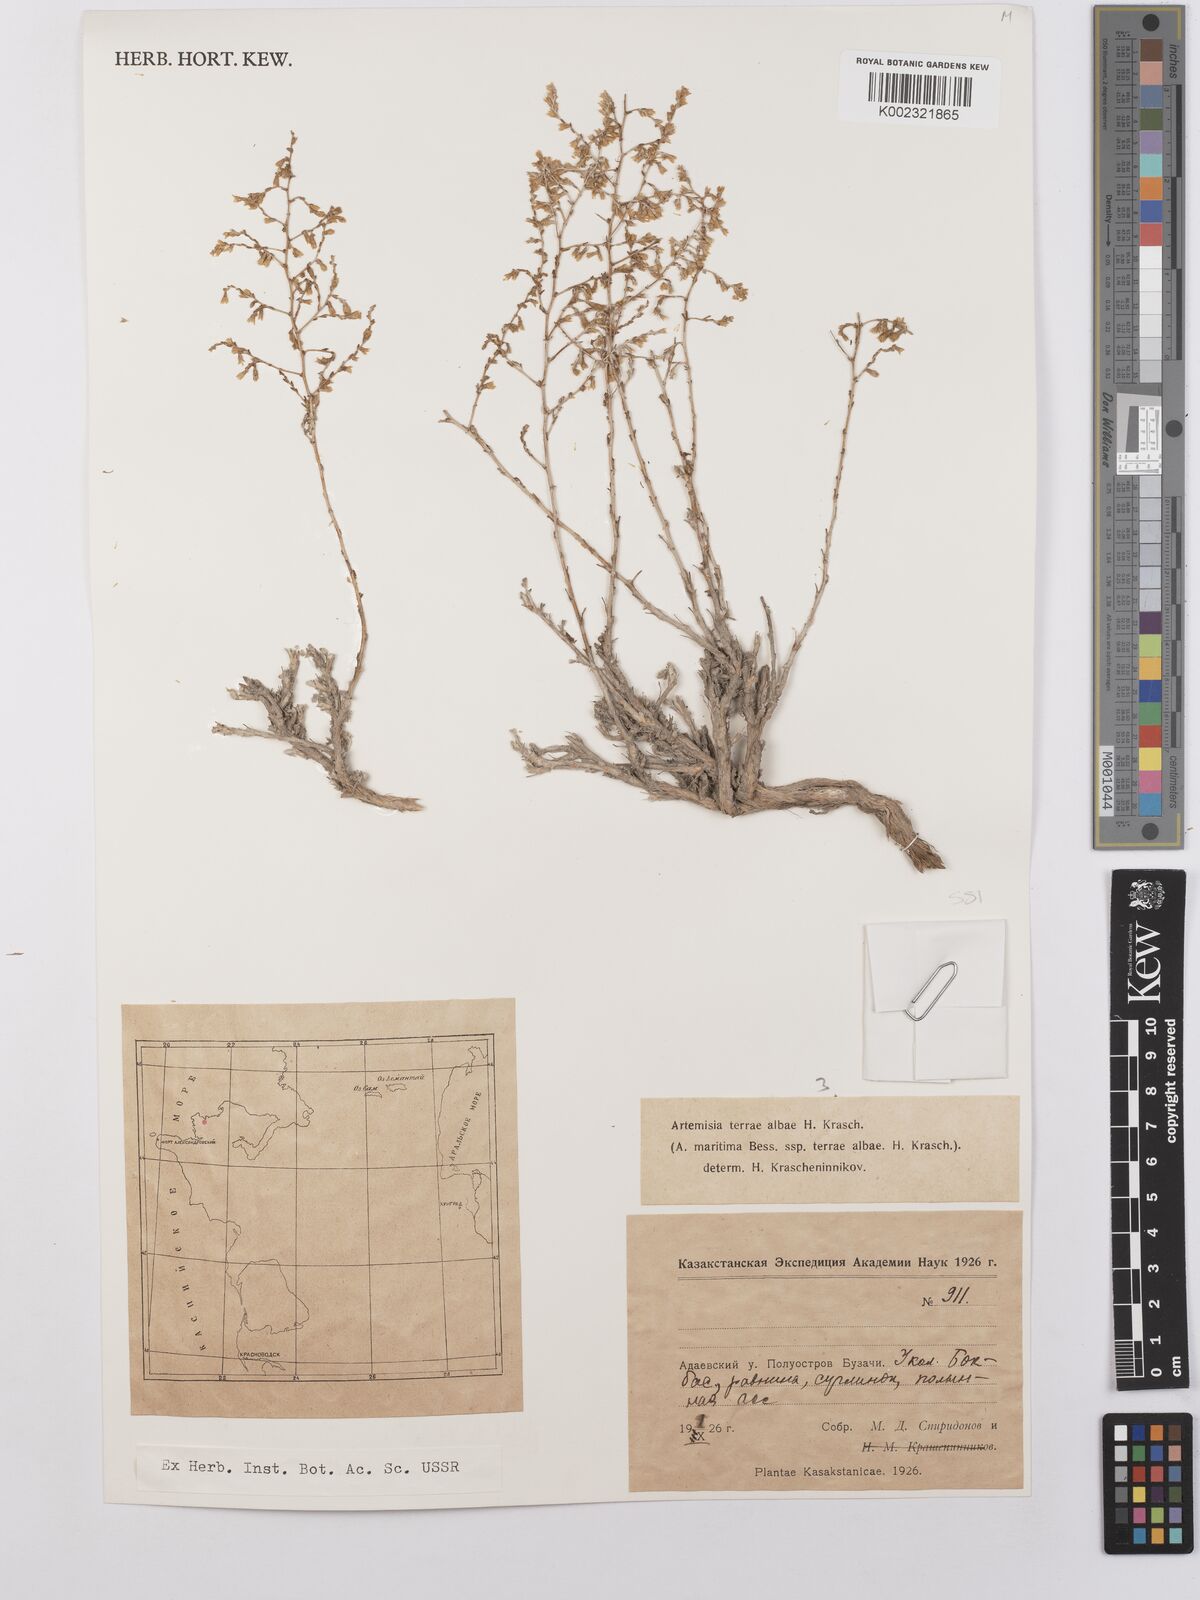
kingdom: Plantae
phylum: Tracheophyta
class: Magnoliopsida
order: Asterales
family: Asteraceae
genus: Artemisia
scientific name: Artemisia terrae-albae
